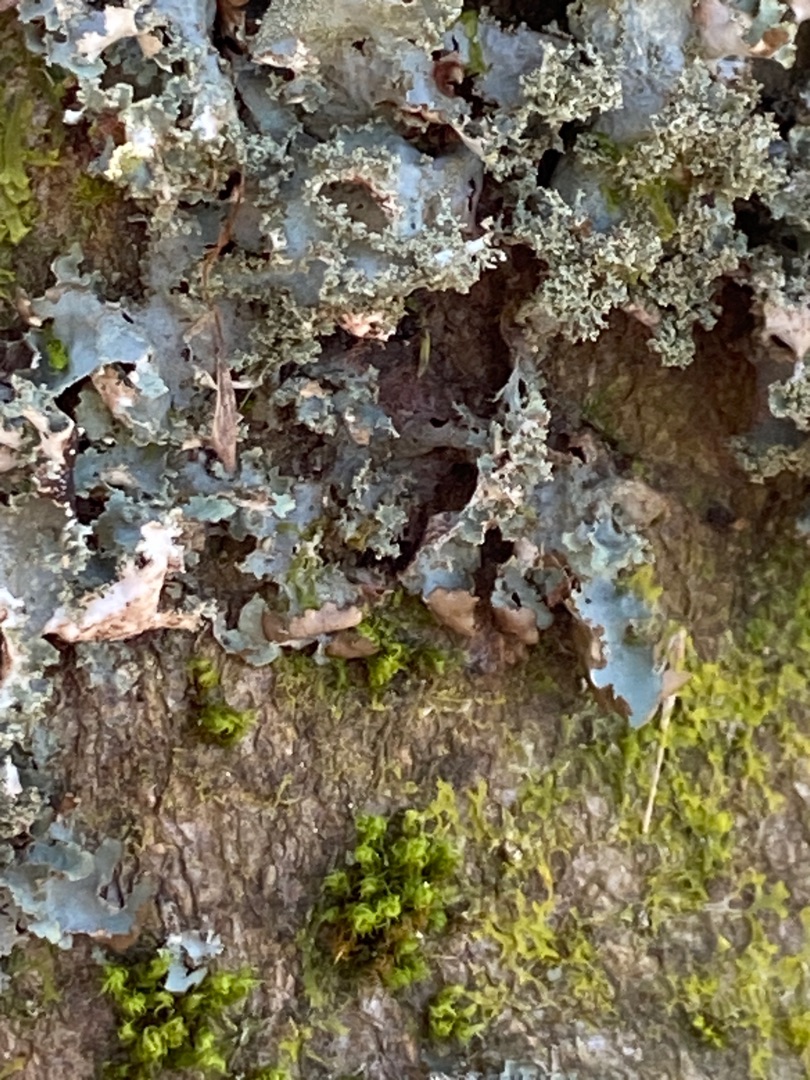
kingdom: Fungi
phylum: Ascomycota
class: Lecanoromycetes
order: Lecanorales
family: Parmeliaceae
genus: Platismatia
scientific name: Platismatia glauca
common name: Blågrå papirlav
